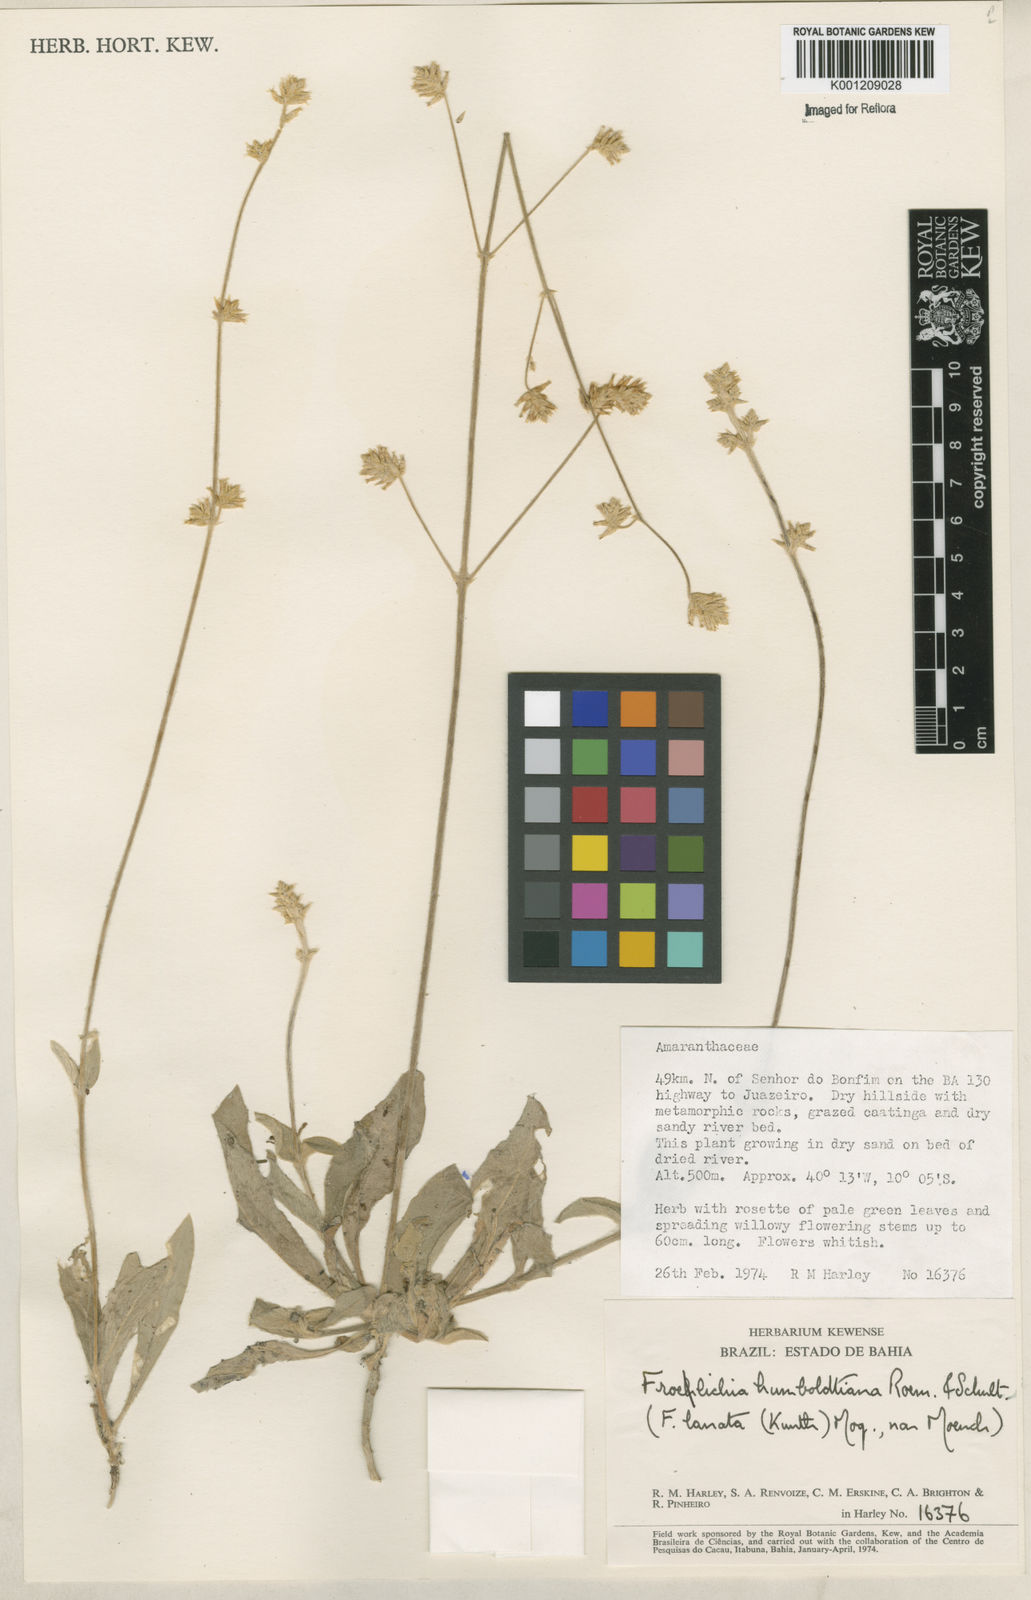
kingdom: Plantae
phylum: Tracheophyta
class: Magnoliopsida
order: Caryophyllales
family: Amaranthaceae
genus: Froelichia
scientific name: Froelichia humboldtiana
